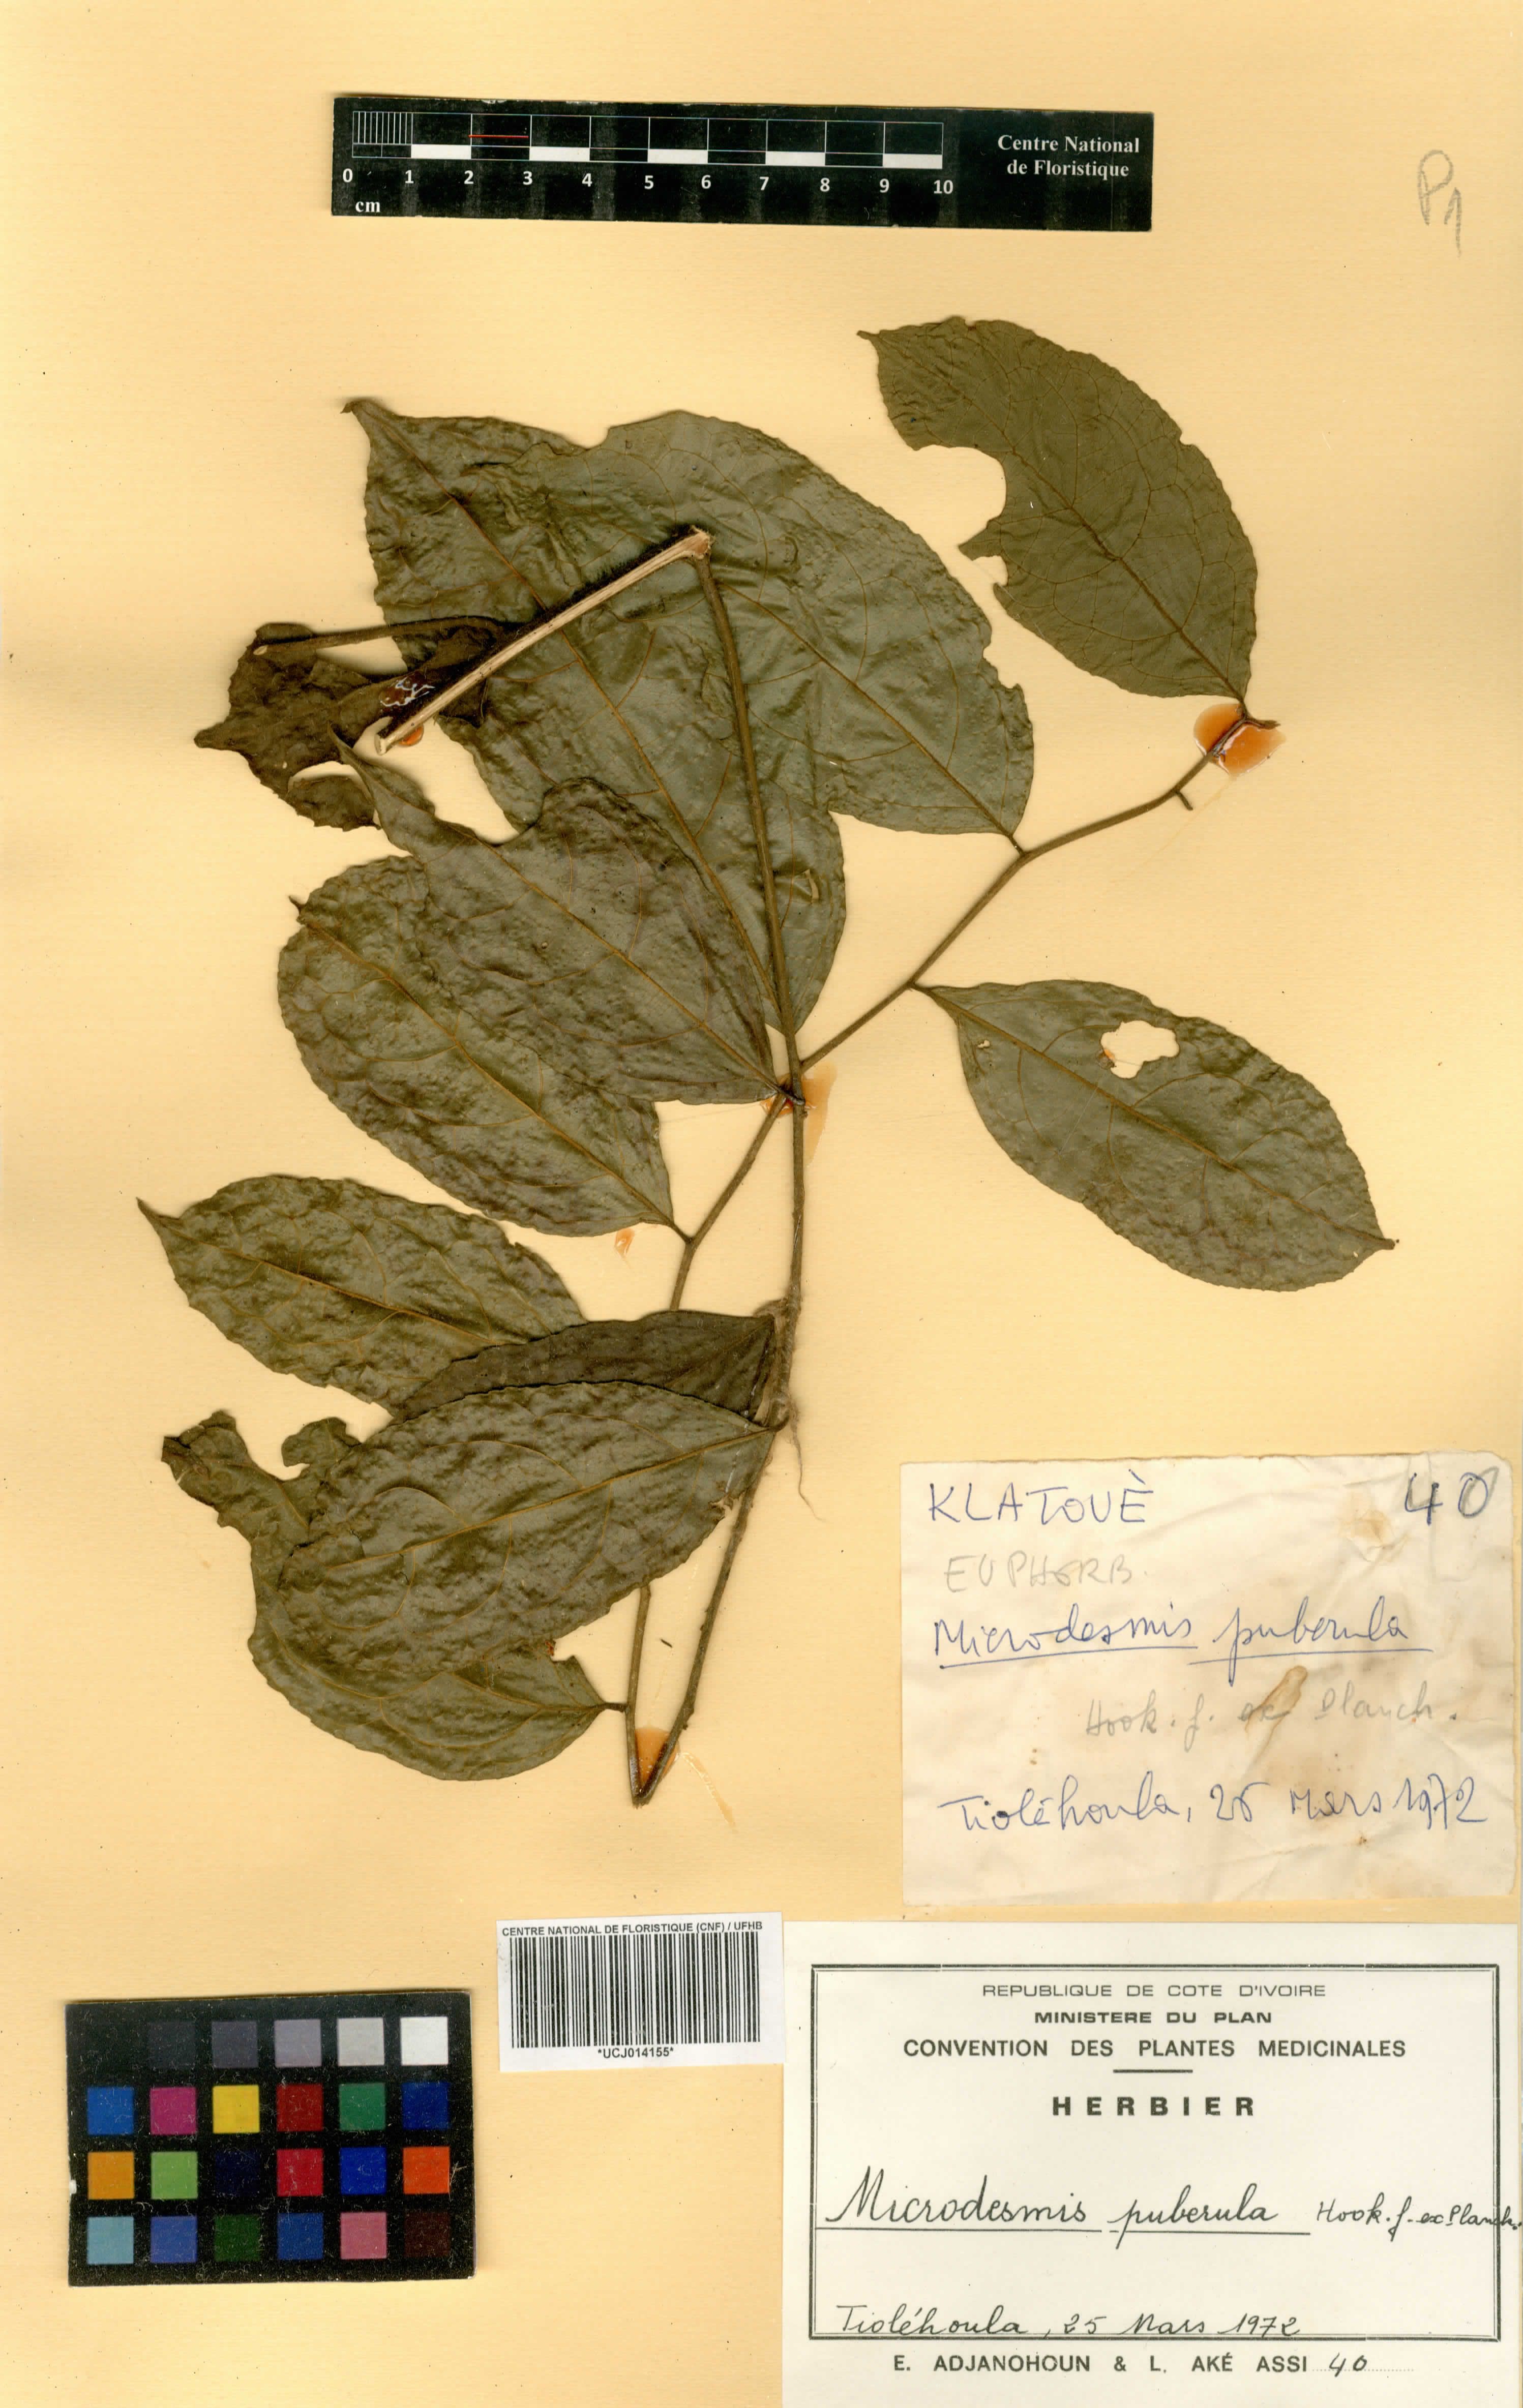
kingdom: Plantae
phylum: Tracheophyta
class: Magnoliopsida
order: Malpighiales
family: Pandaceae
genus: Microdesmis
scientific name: Microdesmis puberula
